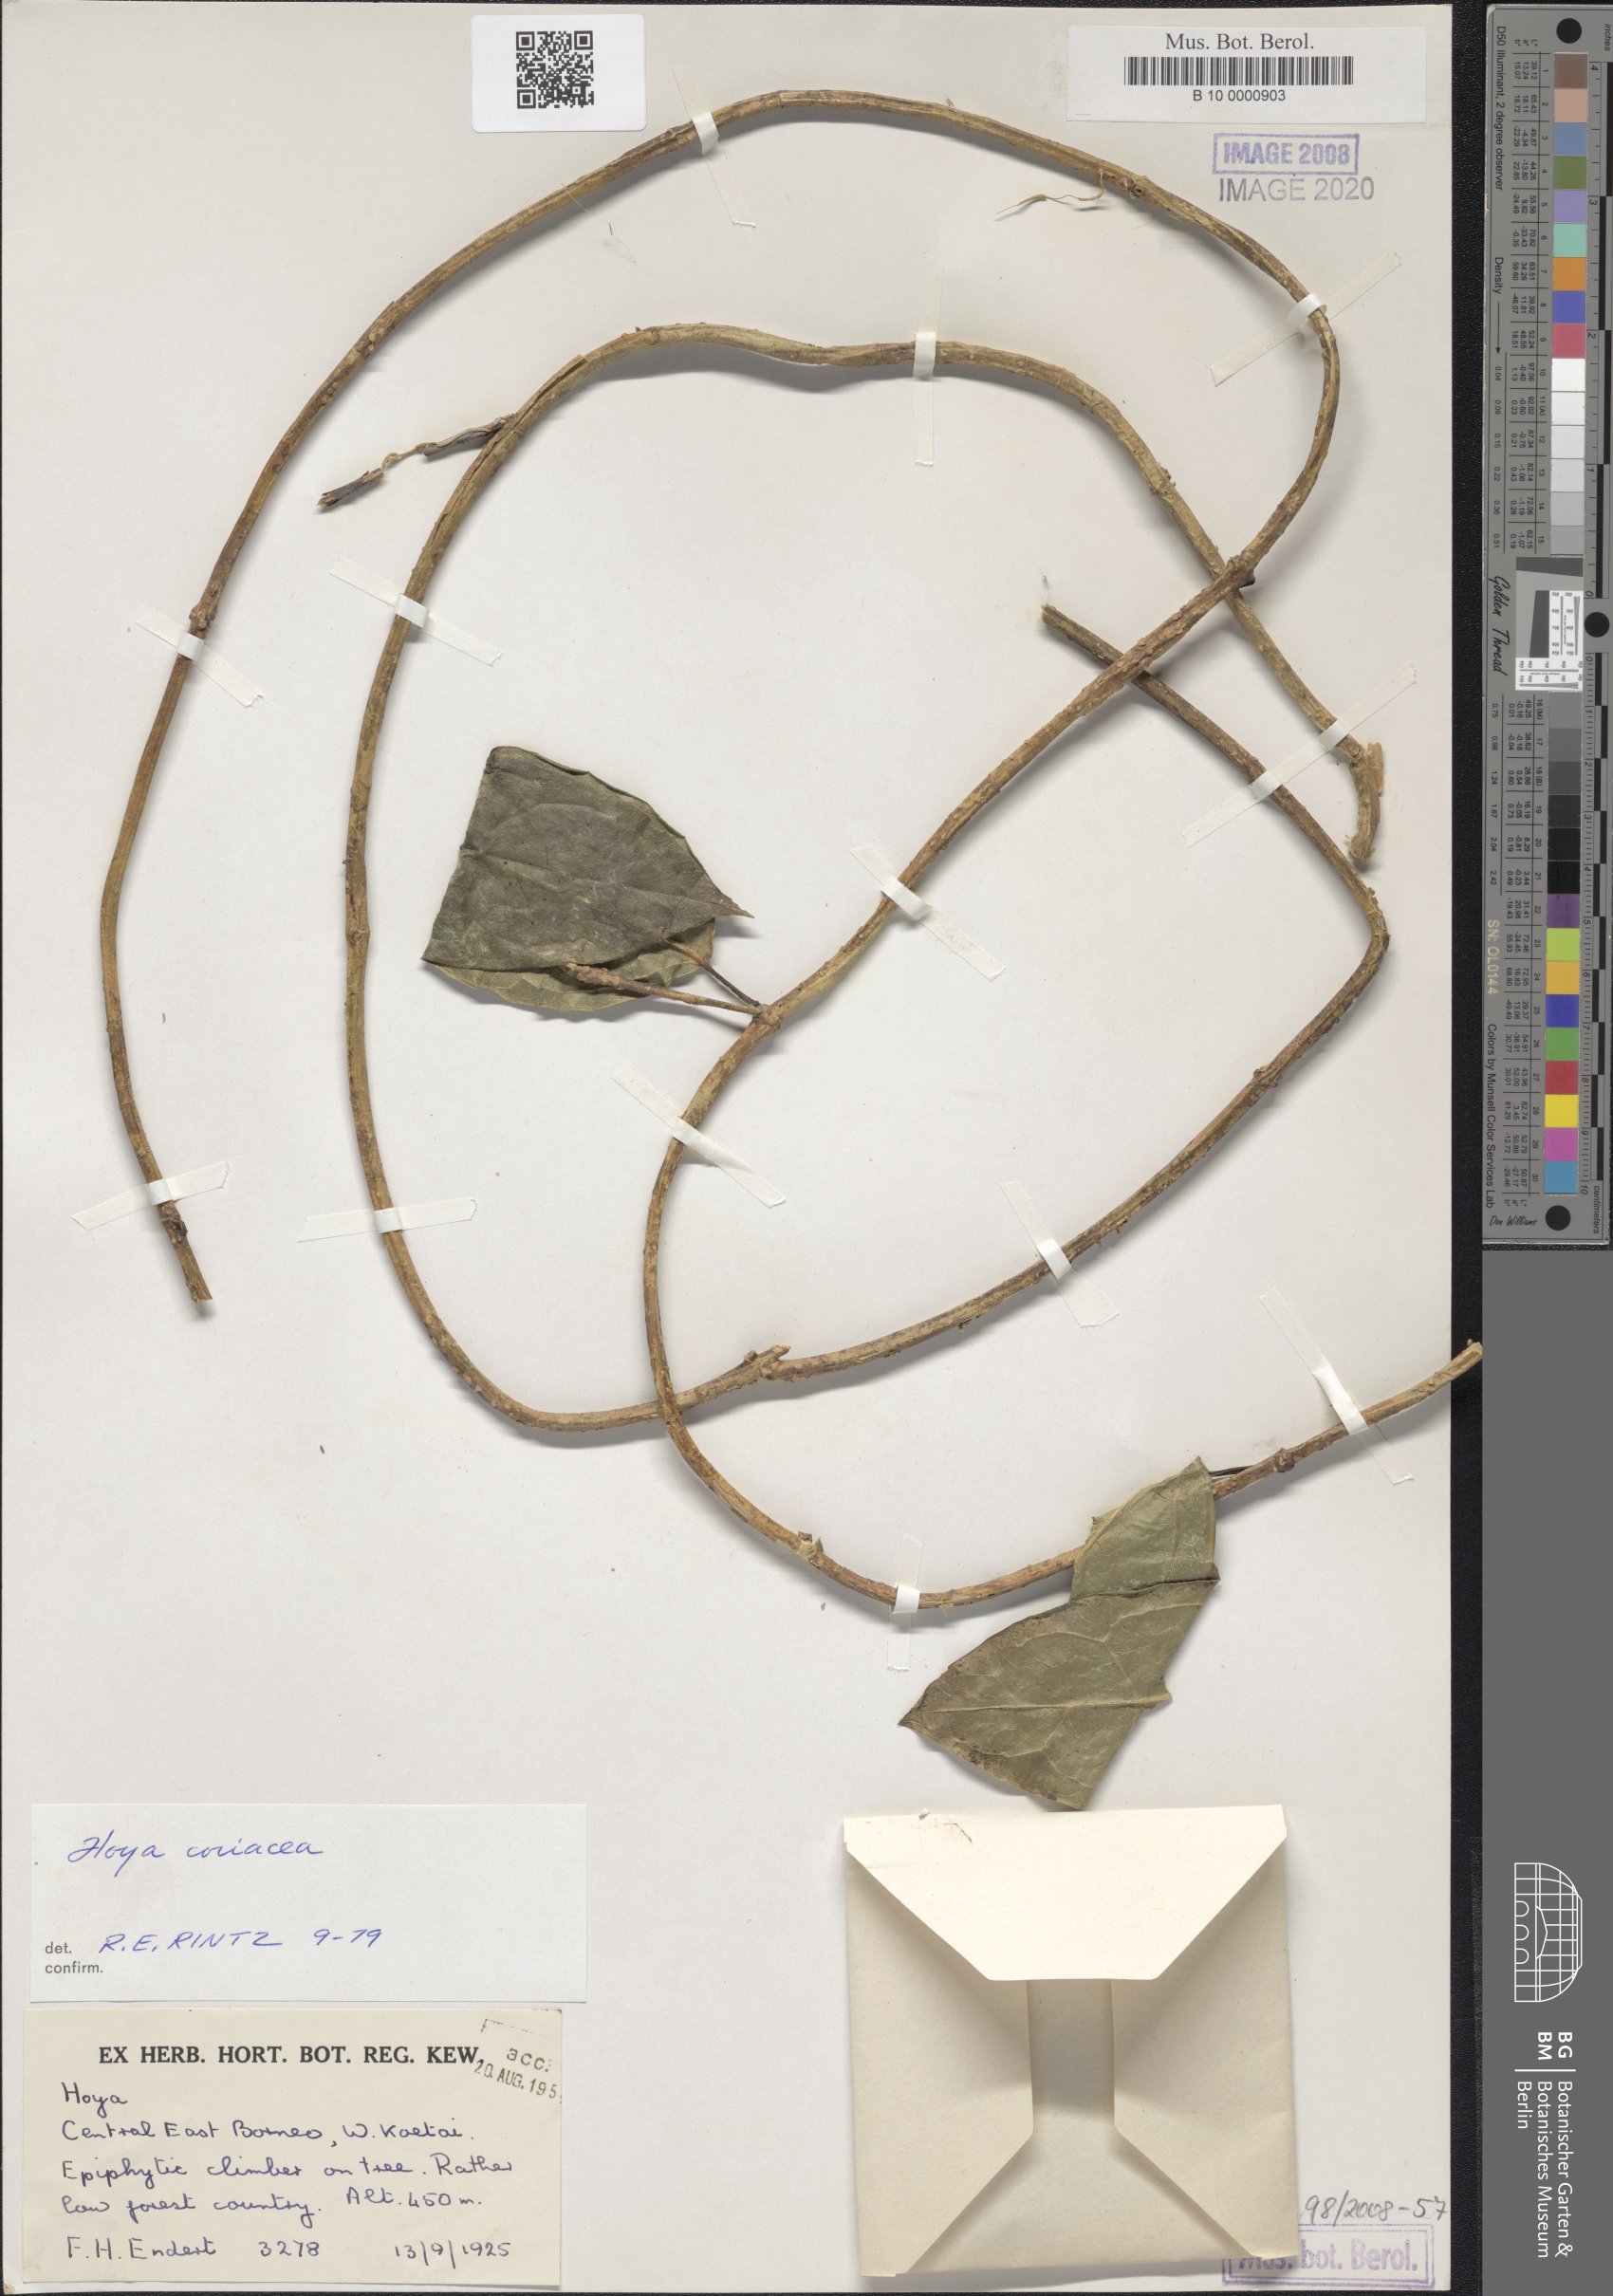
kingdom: Plantae
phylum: Tracheophyta
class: Magnoliopsida
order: Gentianales
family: Apocynaceae
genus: Hoya
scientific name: Hoya coriacea
